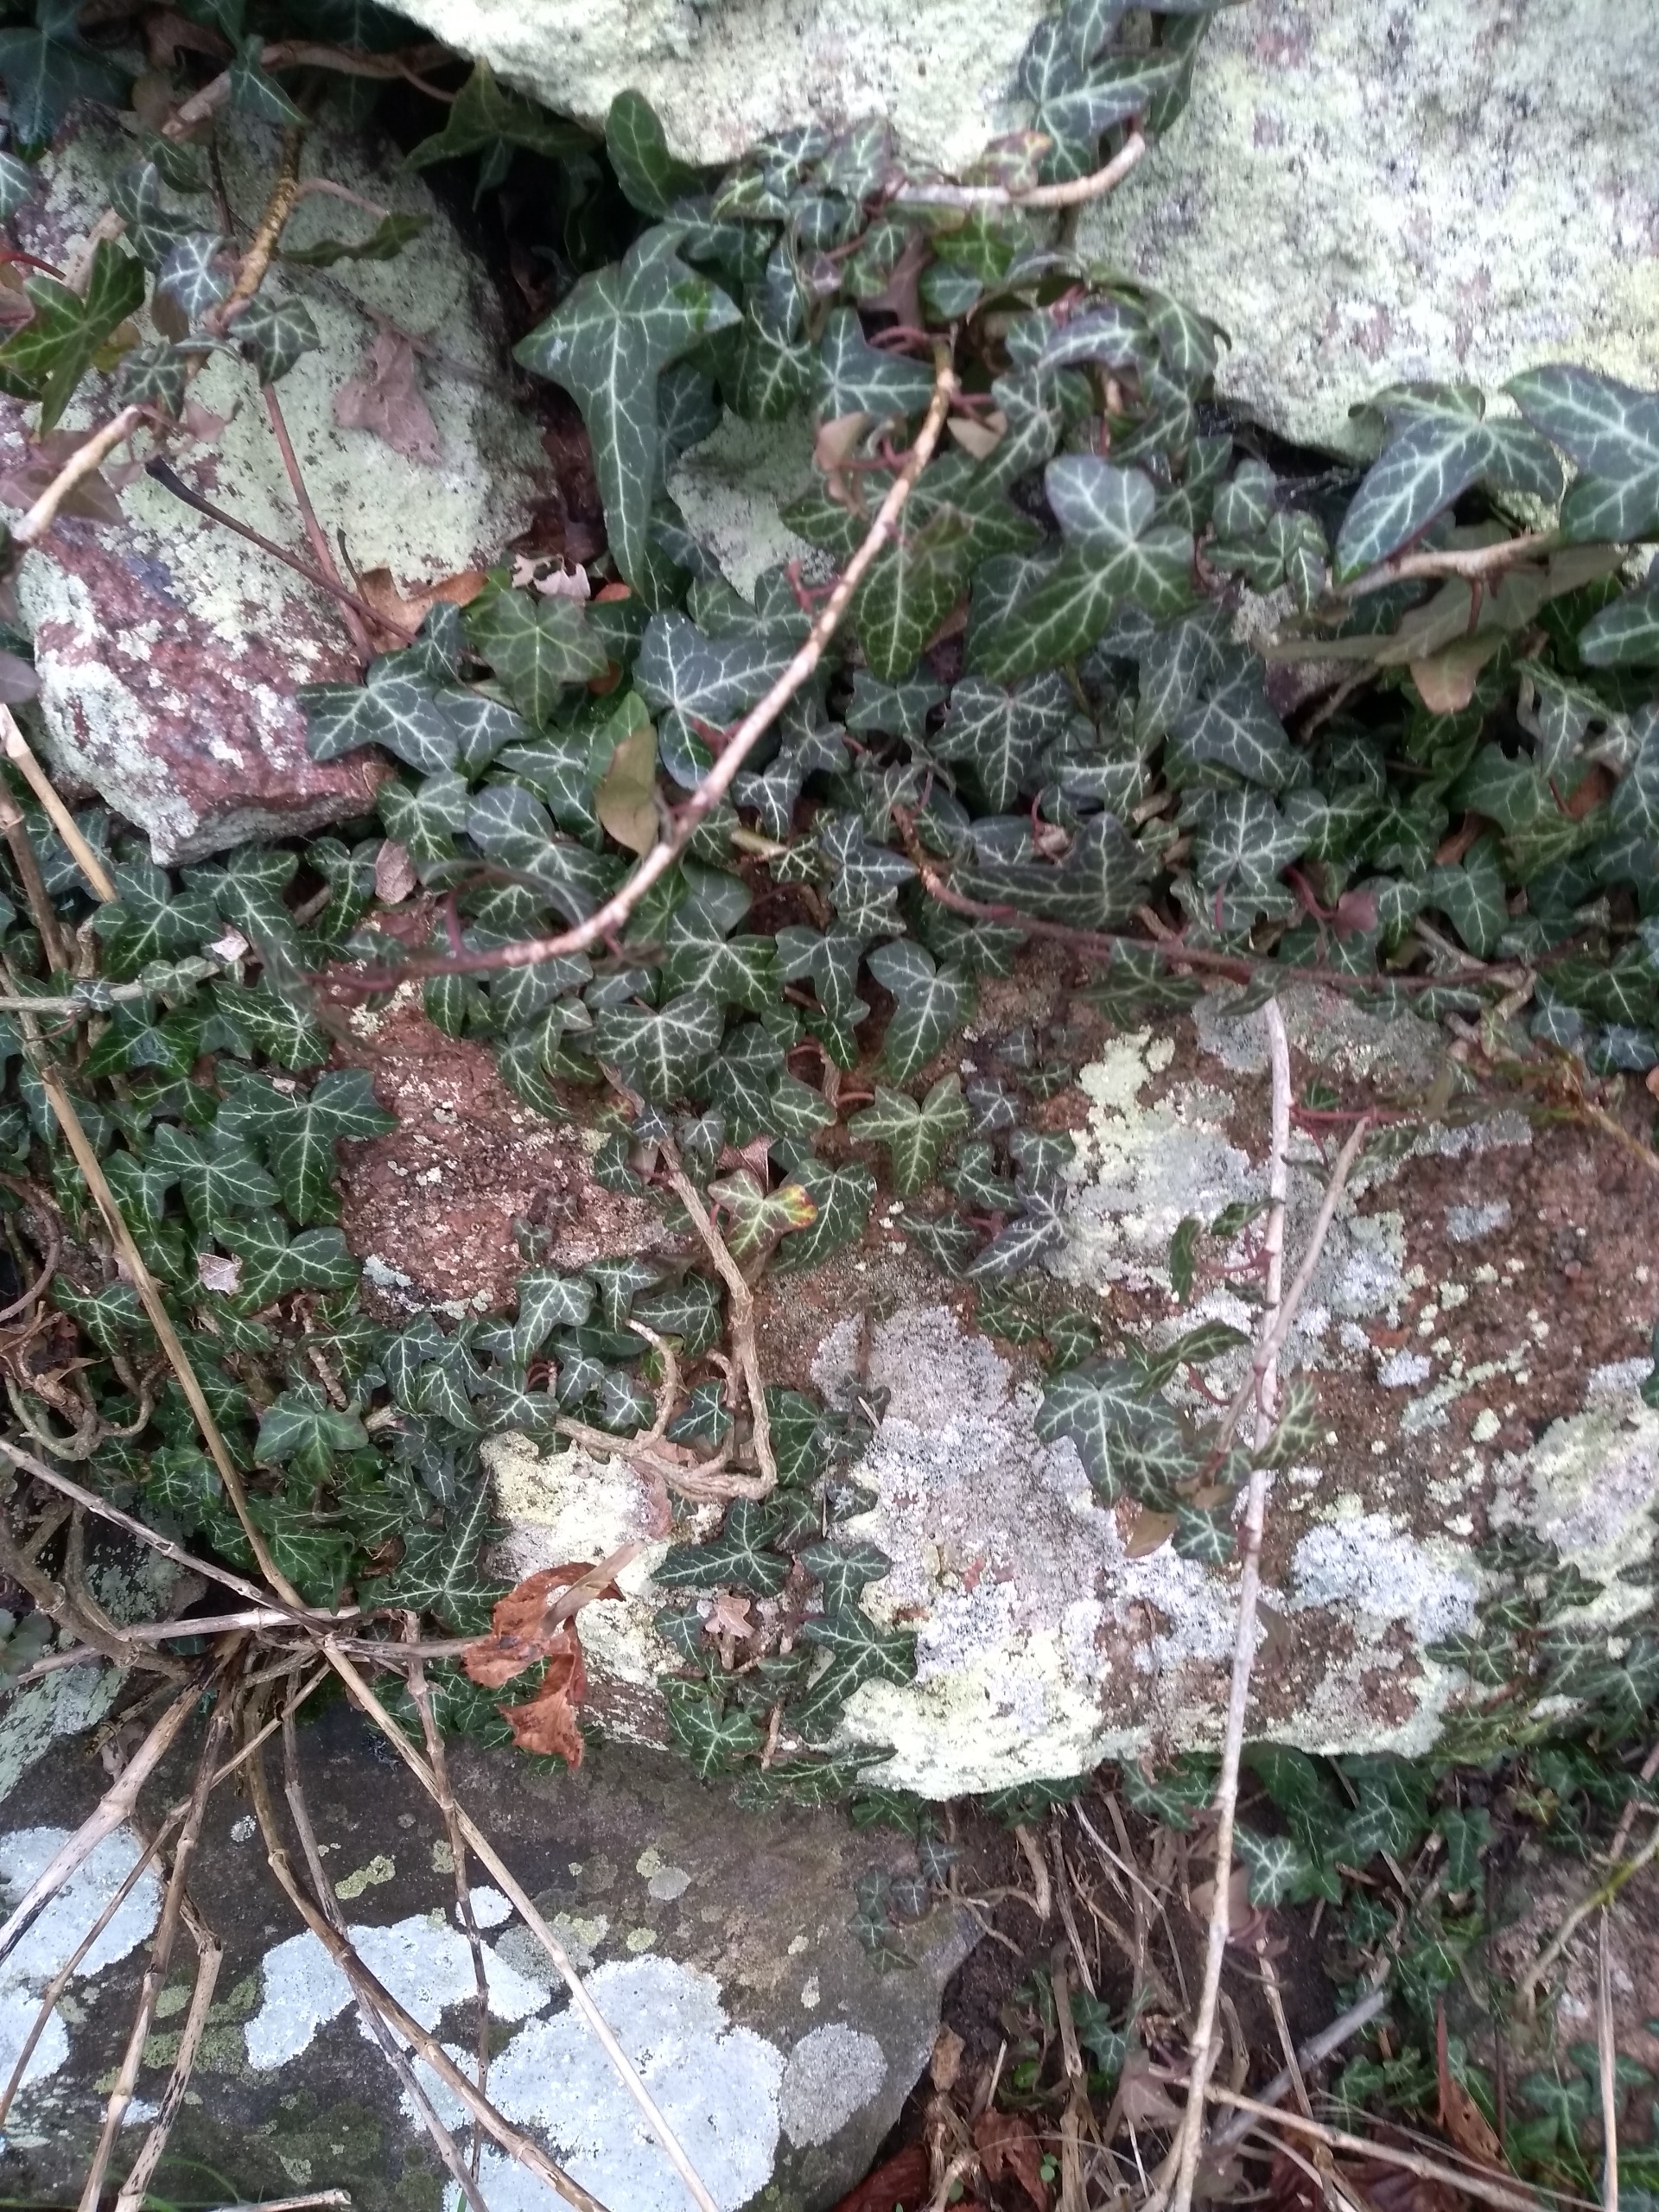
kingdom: Plantae
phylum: Tracheophyta
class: Magnoliopsida
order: Apiales
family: Araliaceae
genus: Hedera
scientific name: Hedera helix
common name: Vedbend
